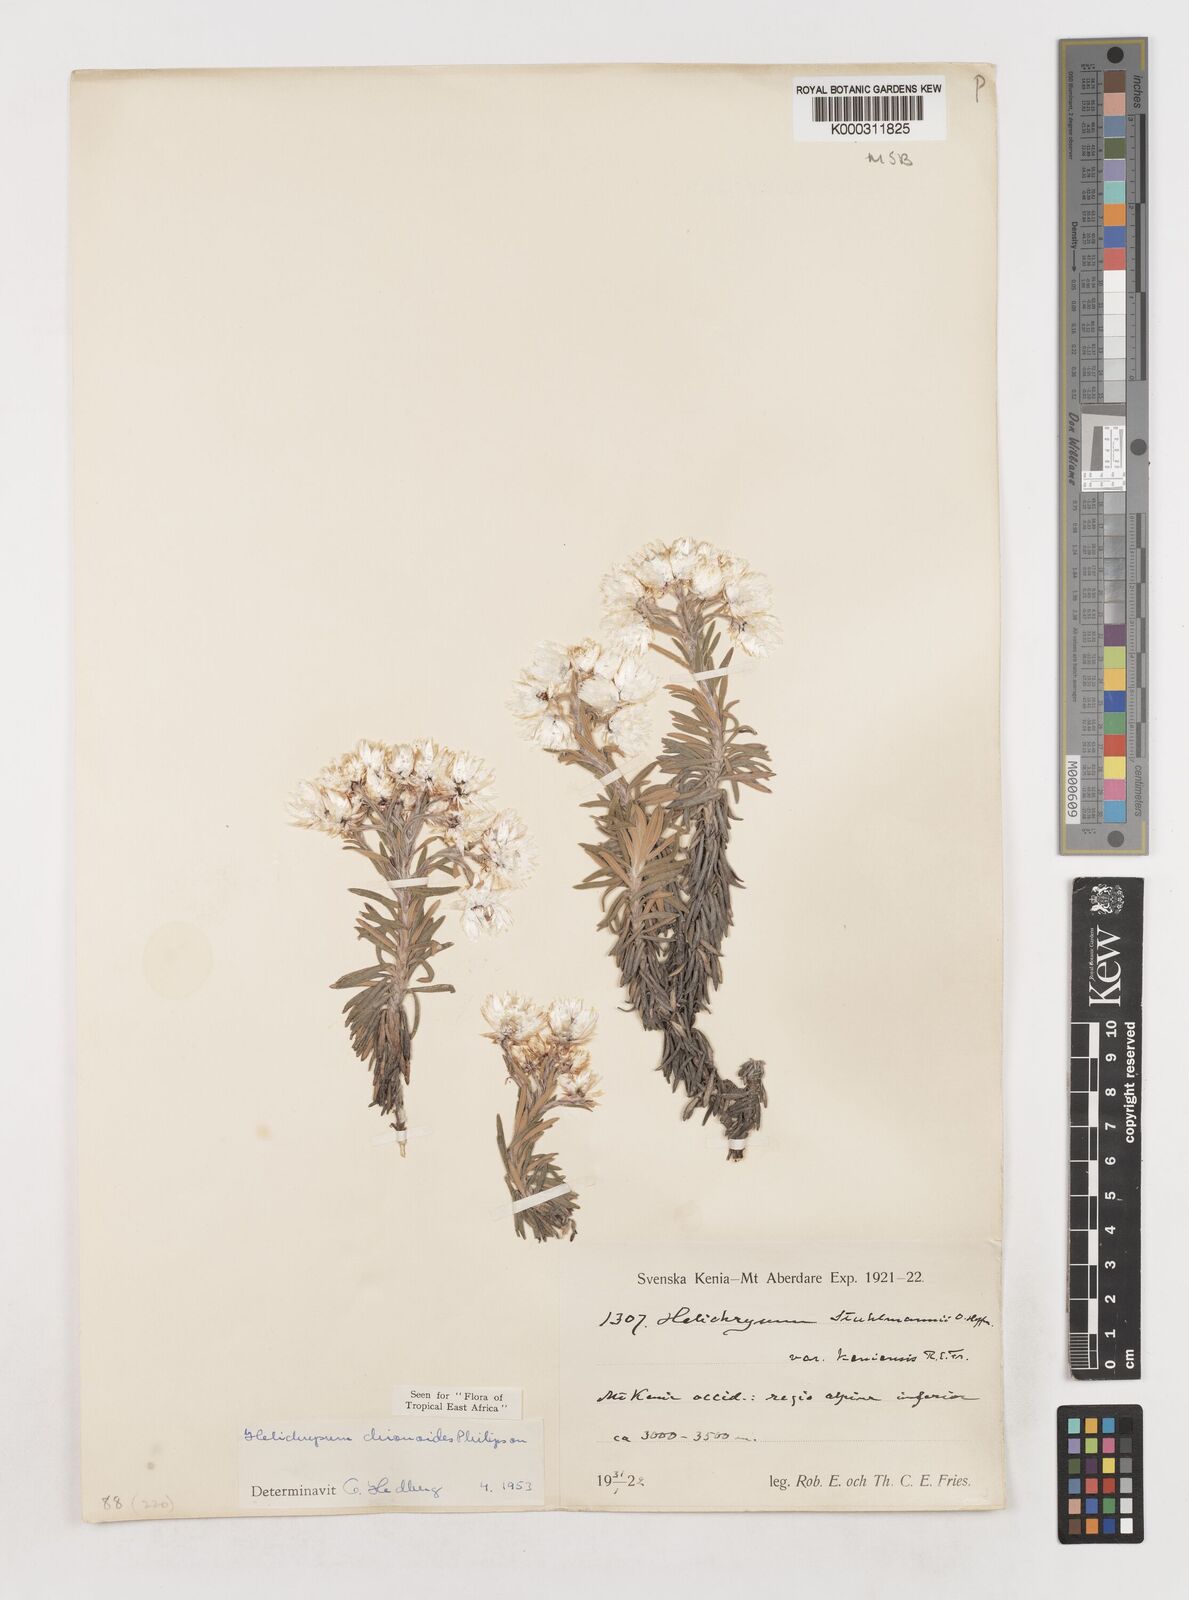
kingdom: Plantae
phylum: Tracheophyta
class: Magnoliopsida
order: Asterales
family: Asteraceae
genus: Helichrysum
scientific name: Helichrysum chionoides
